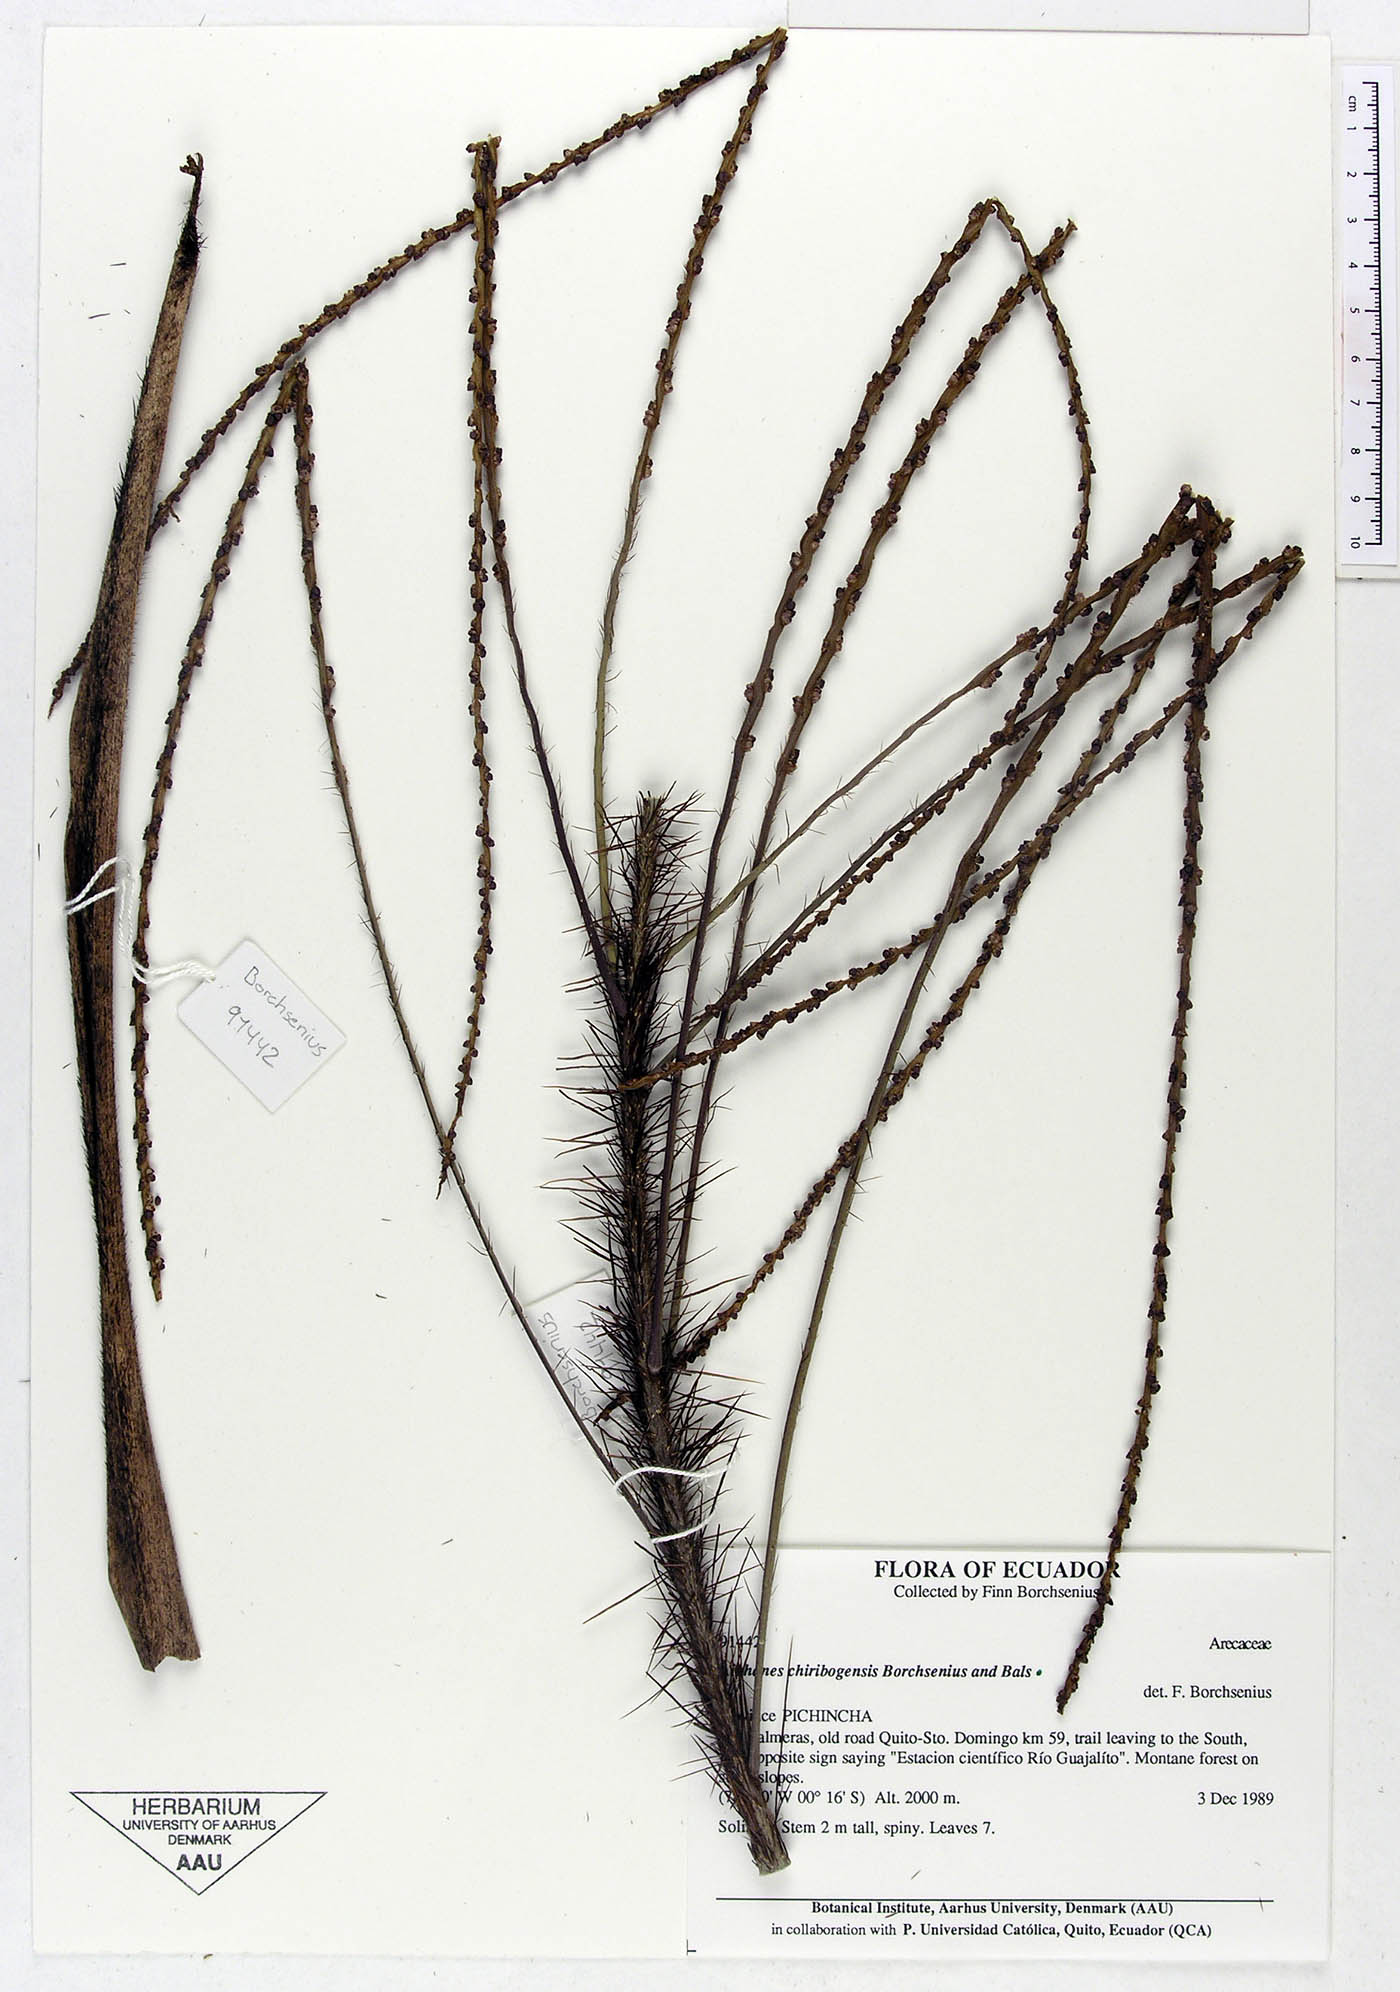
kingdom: Plantae
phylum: Tracheophyta
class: Liliopsida
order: Arecales
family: Arecaceae
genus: Aiphanes
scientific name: Aiphanes chiribogensis
